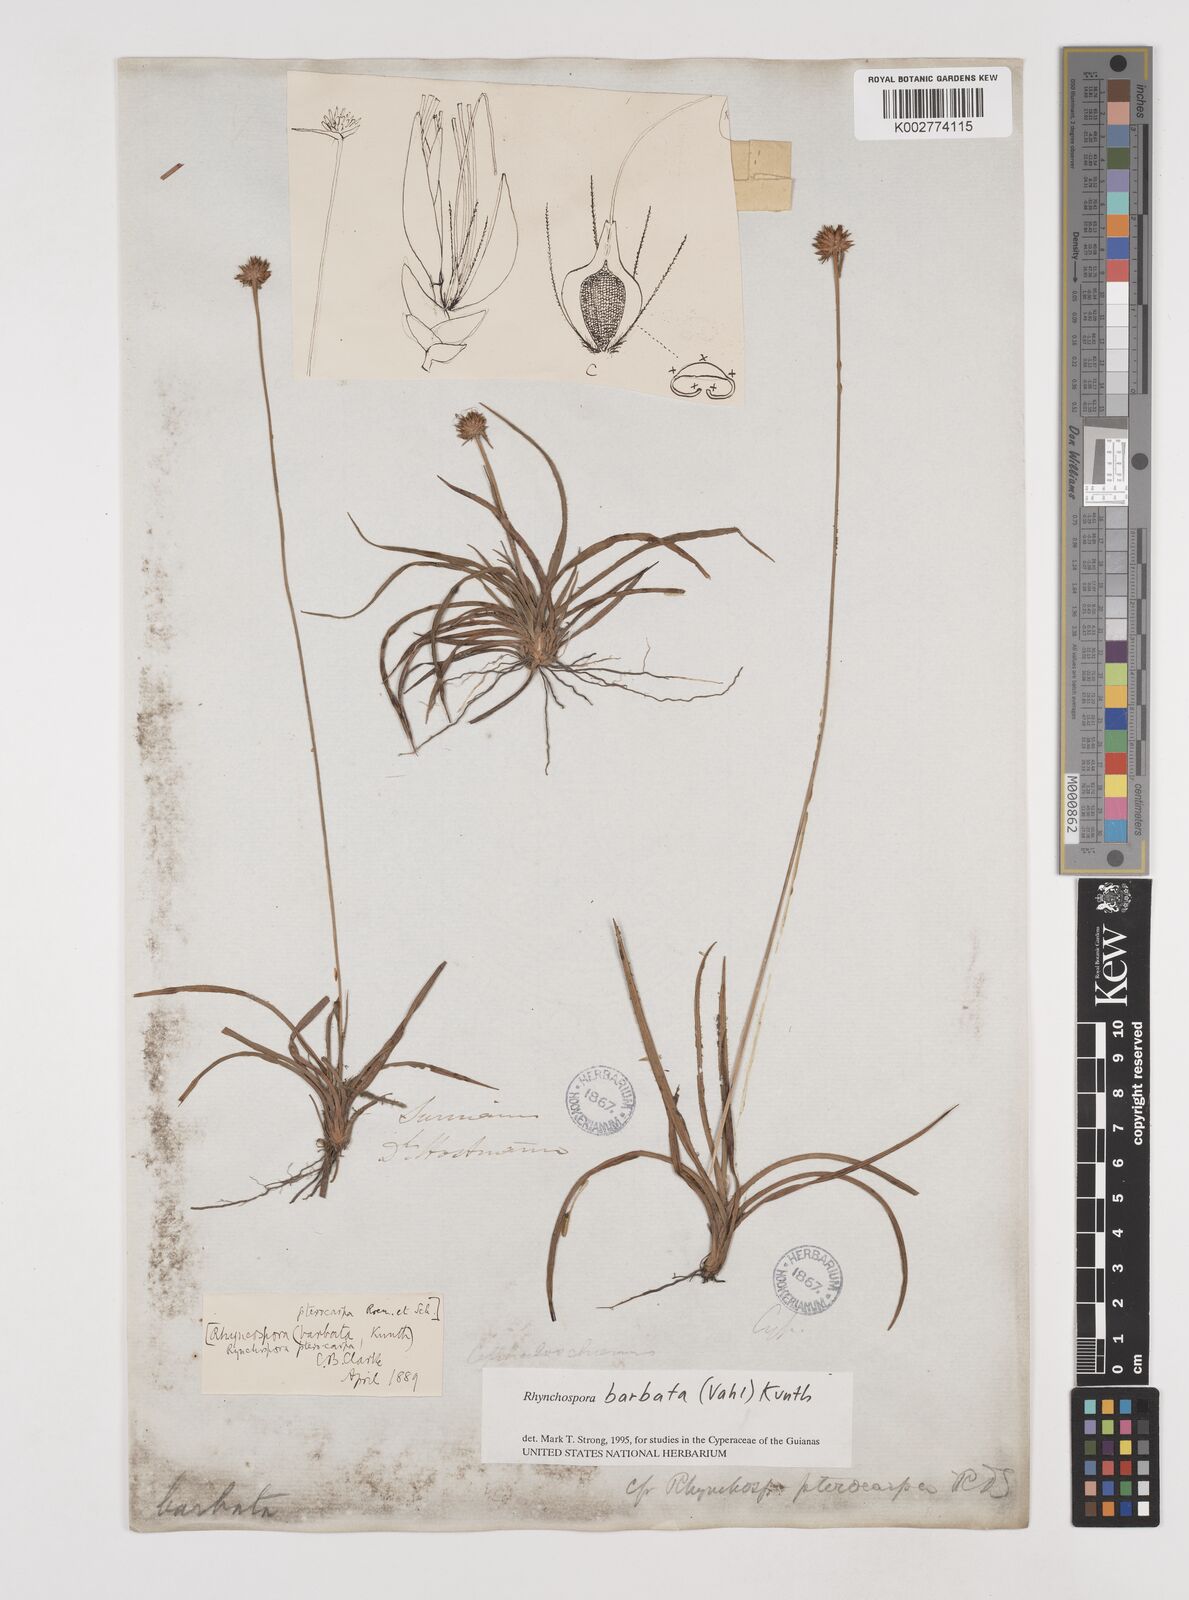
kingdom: Plantae
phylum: Tracheophyta
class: Liliopsida
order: Poales
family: Cyperaceae
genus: Rhynchospora
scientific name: Rhynchospora barbata
